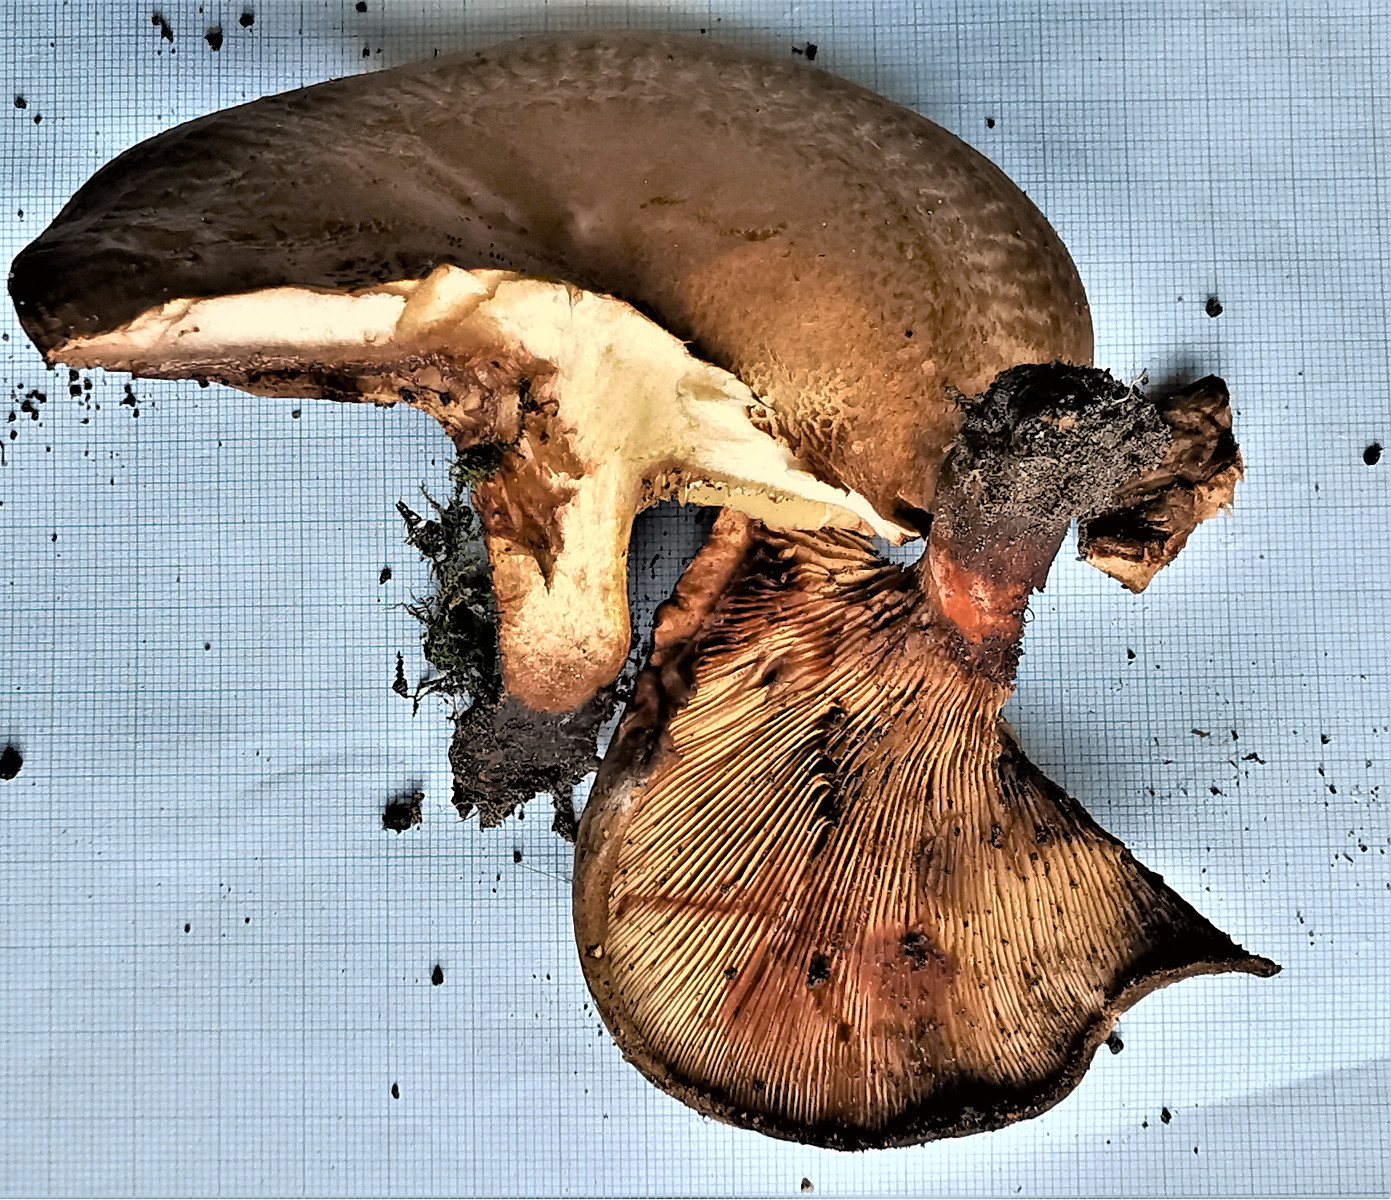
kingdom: Fungi
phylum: Basidiomycota
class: Agaricomycetes
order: Boletales
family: Paxillaceae
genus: Paxillus
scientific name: Paxillus involutus
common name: almindelig netbladhat
